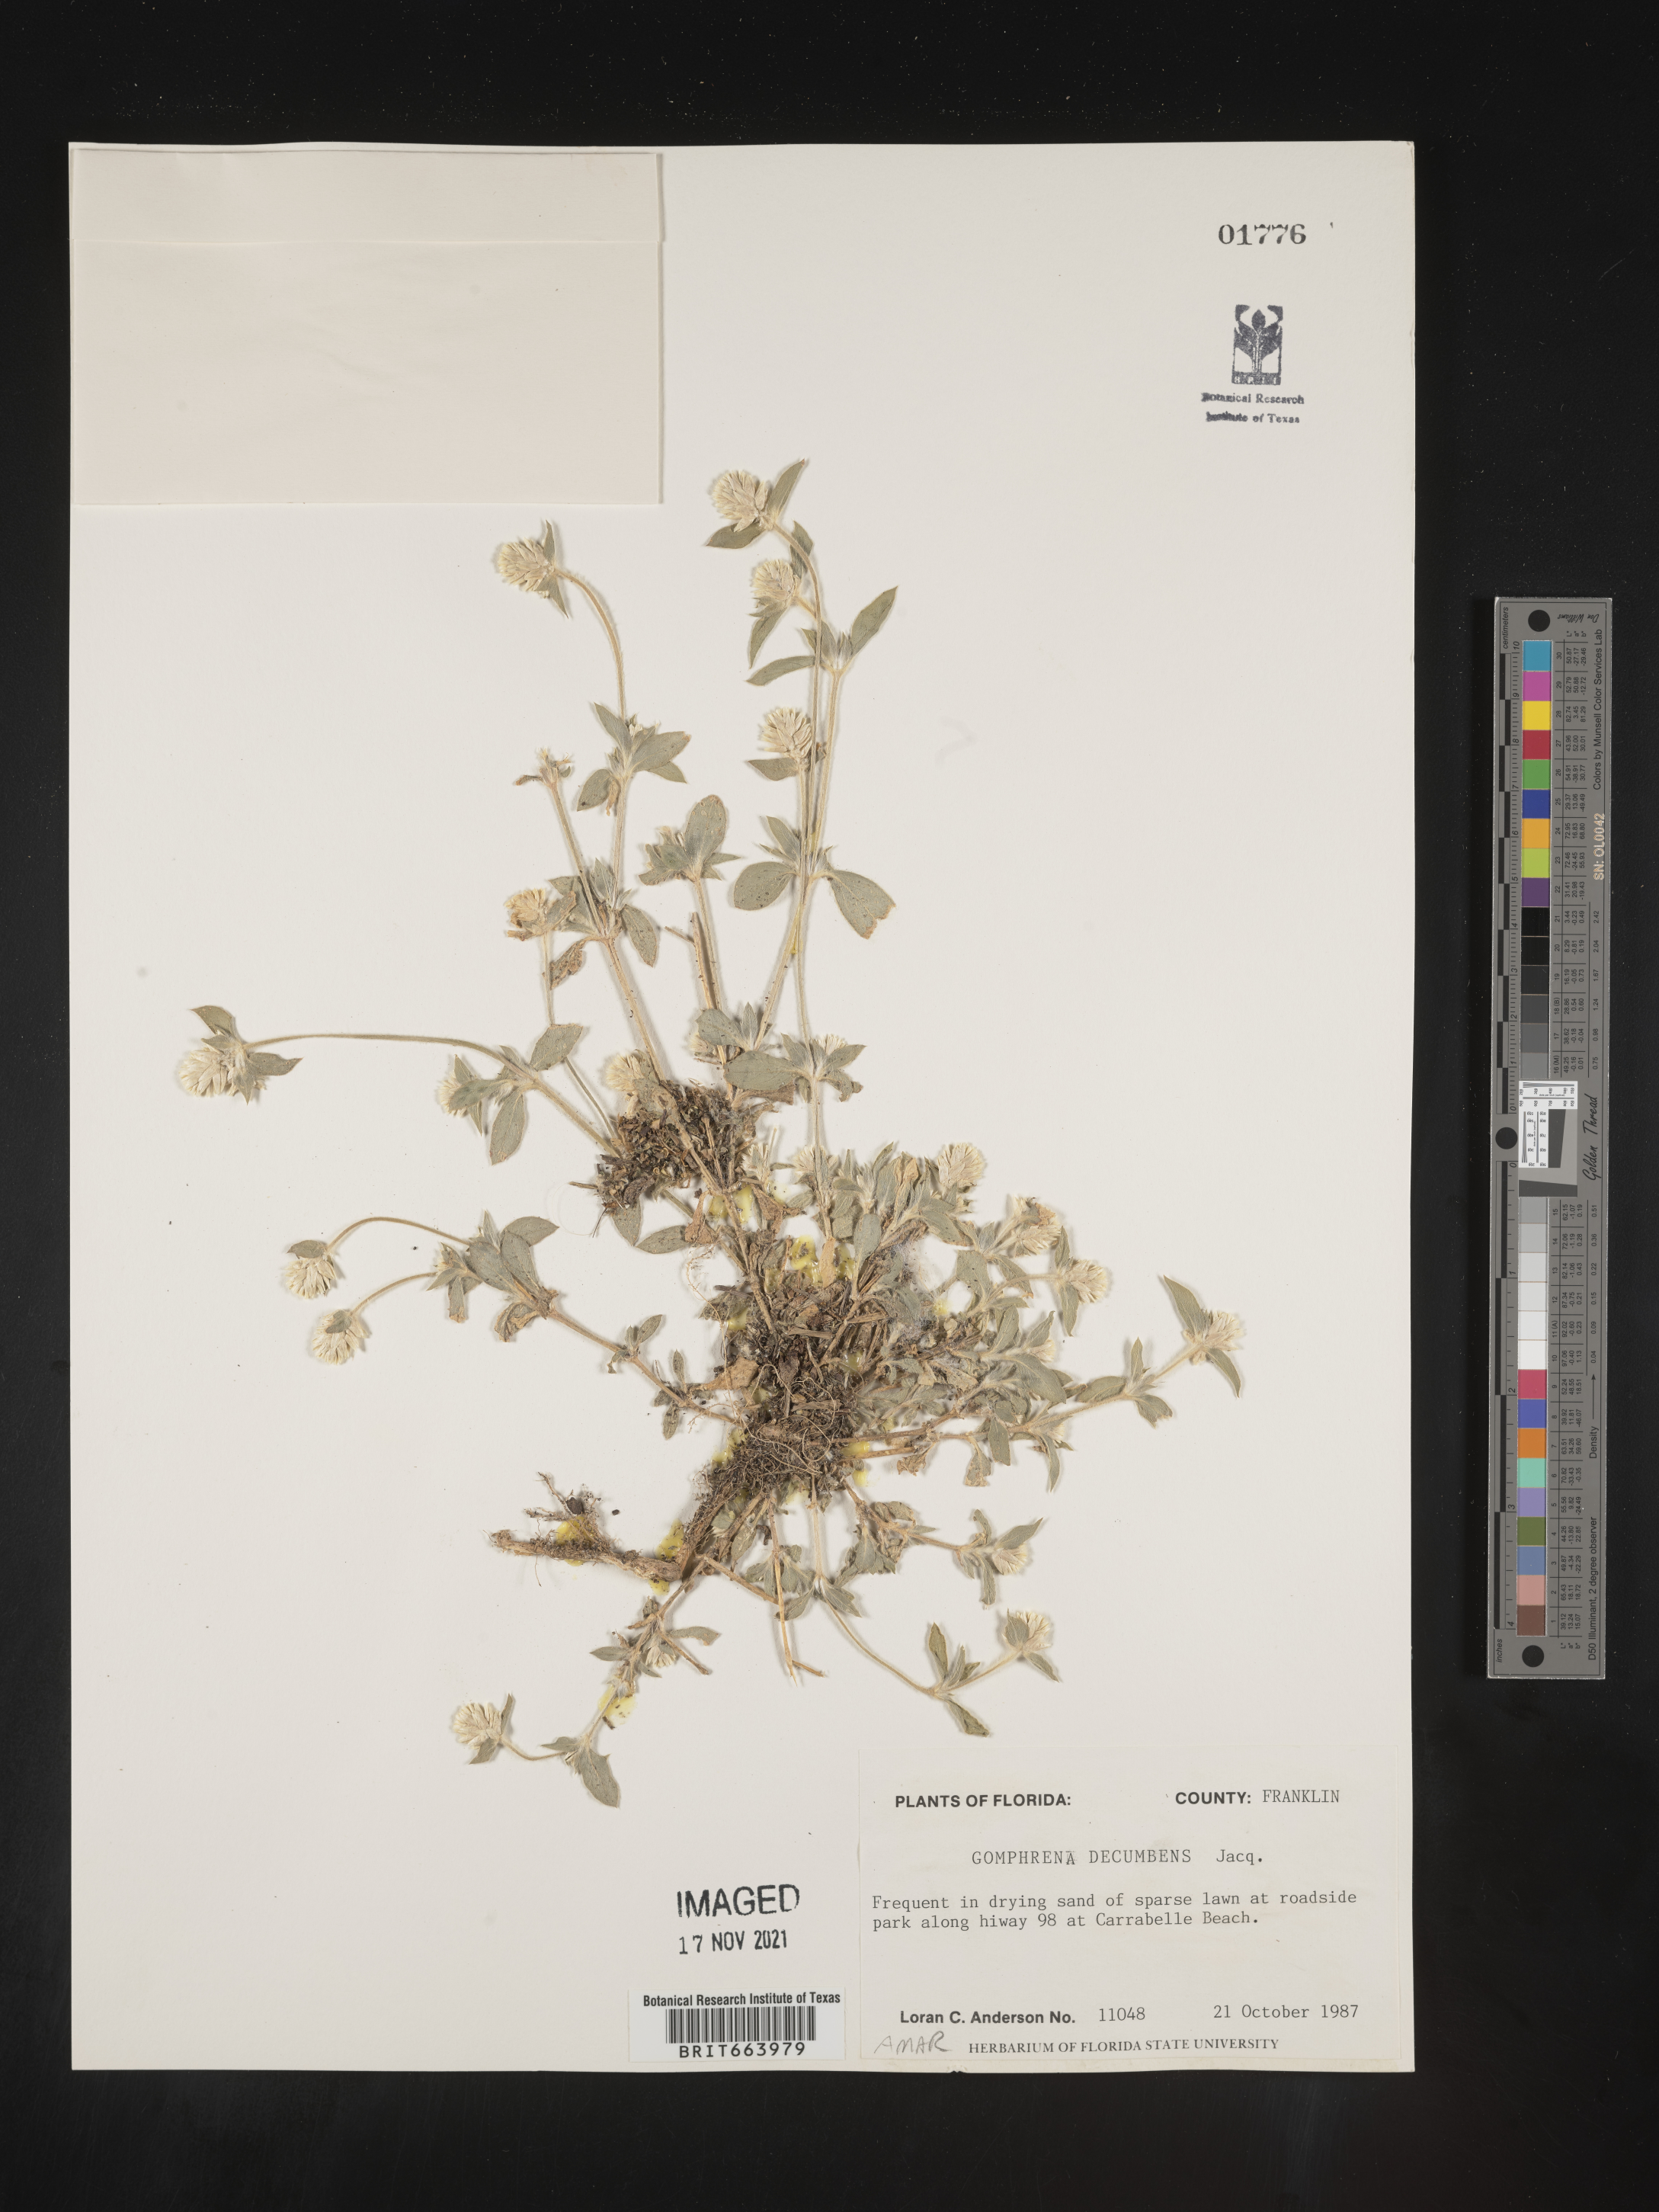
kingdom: Plantae
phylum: Tracheophyta
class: Magnoliopsida
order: Caryophyllales
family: Amaranthaceae
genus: Gomphrena
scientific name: Gomphrena
